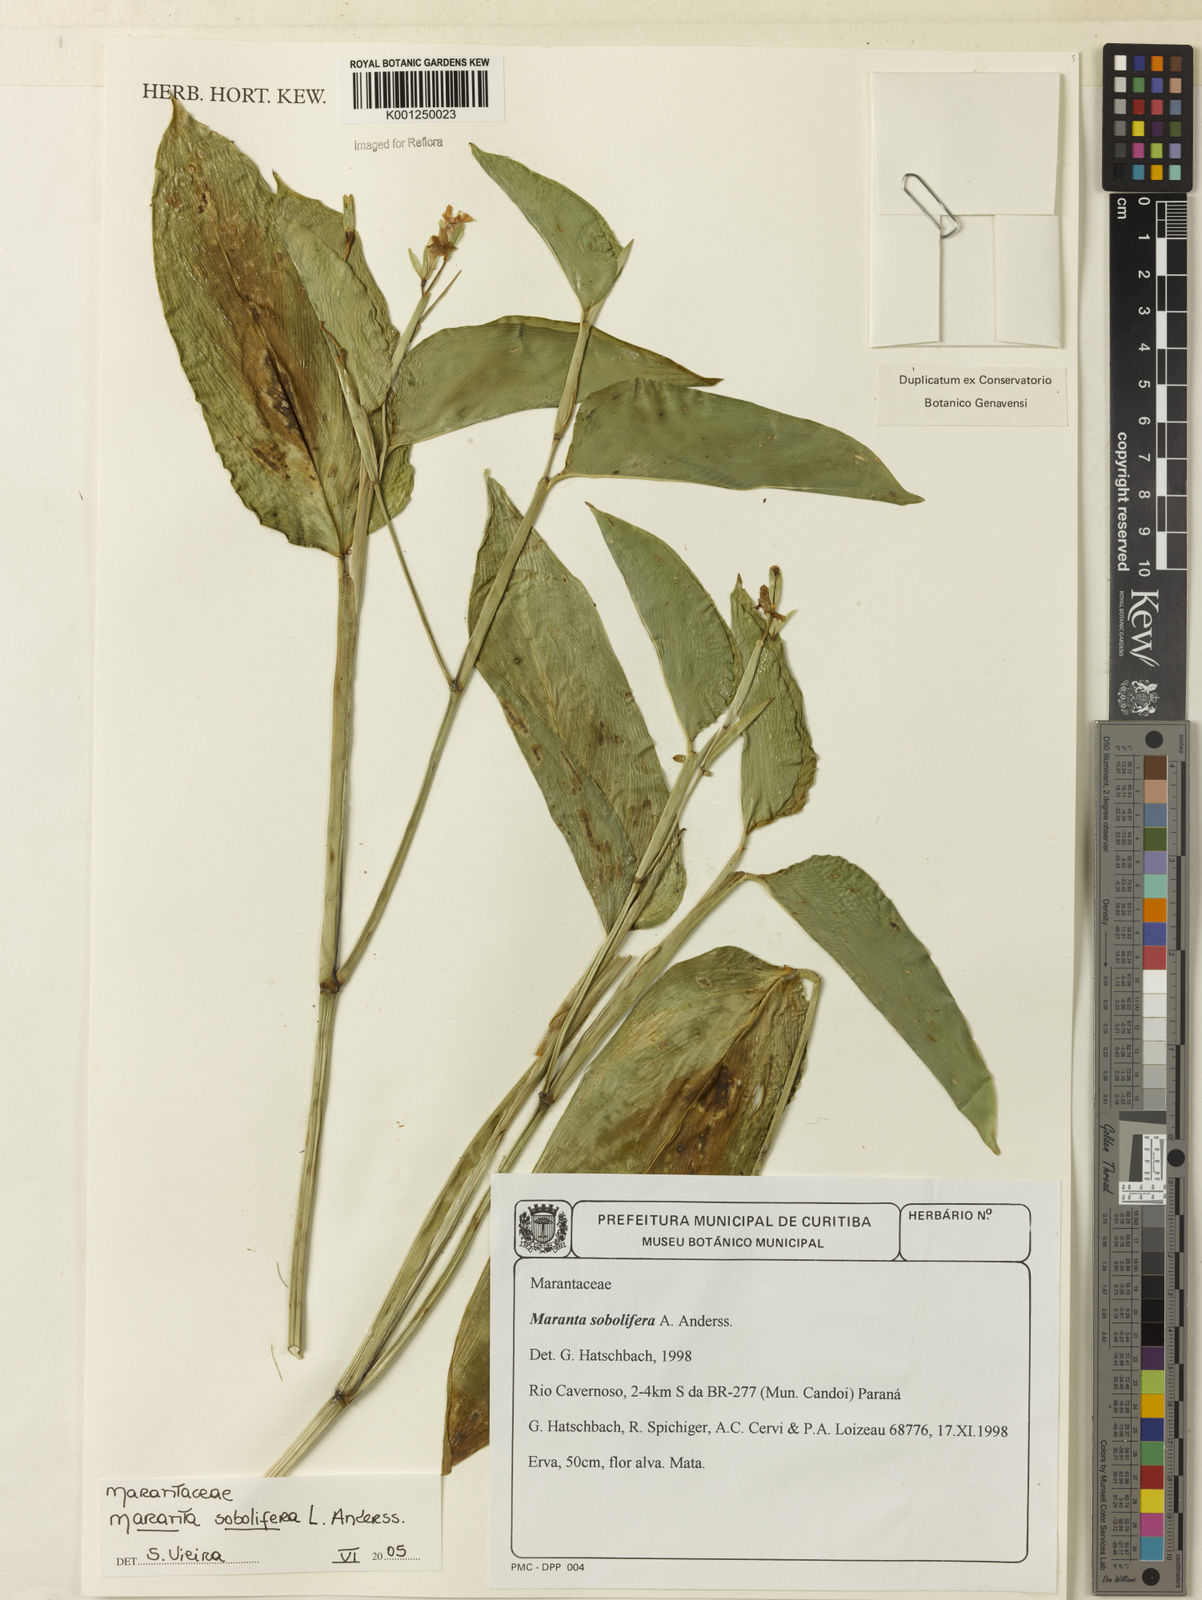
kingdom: Plantae
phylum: Tracheophyta
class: Liliopsida
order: Zingiberales
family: Marantaceae
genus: Maranta
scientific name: Maranta sobolifera
